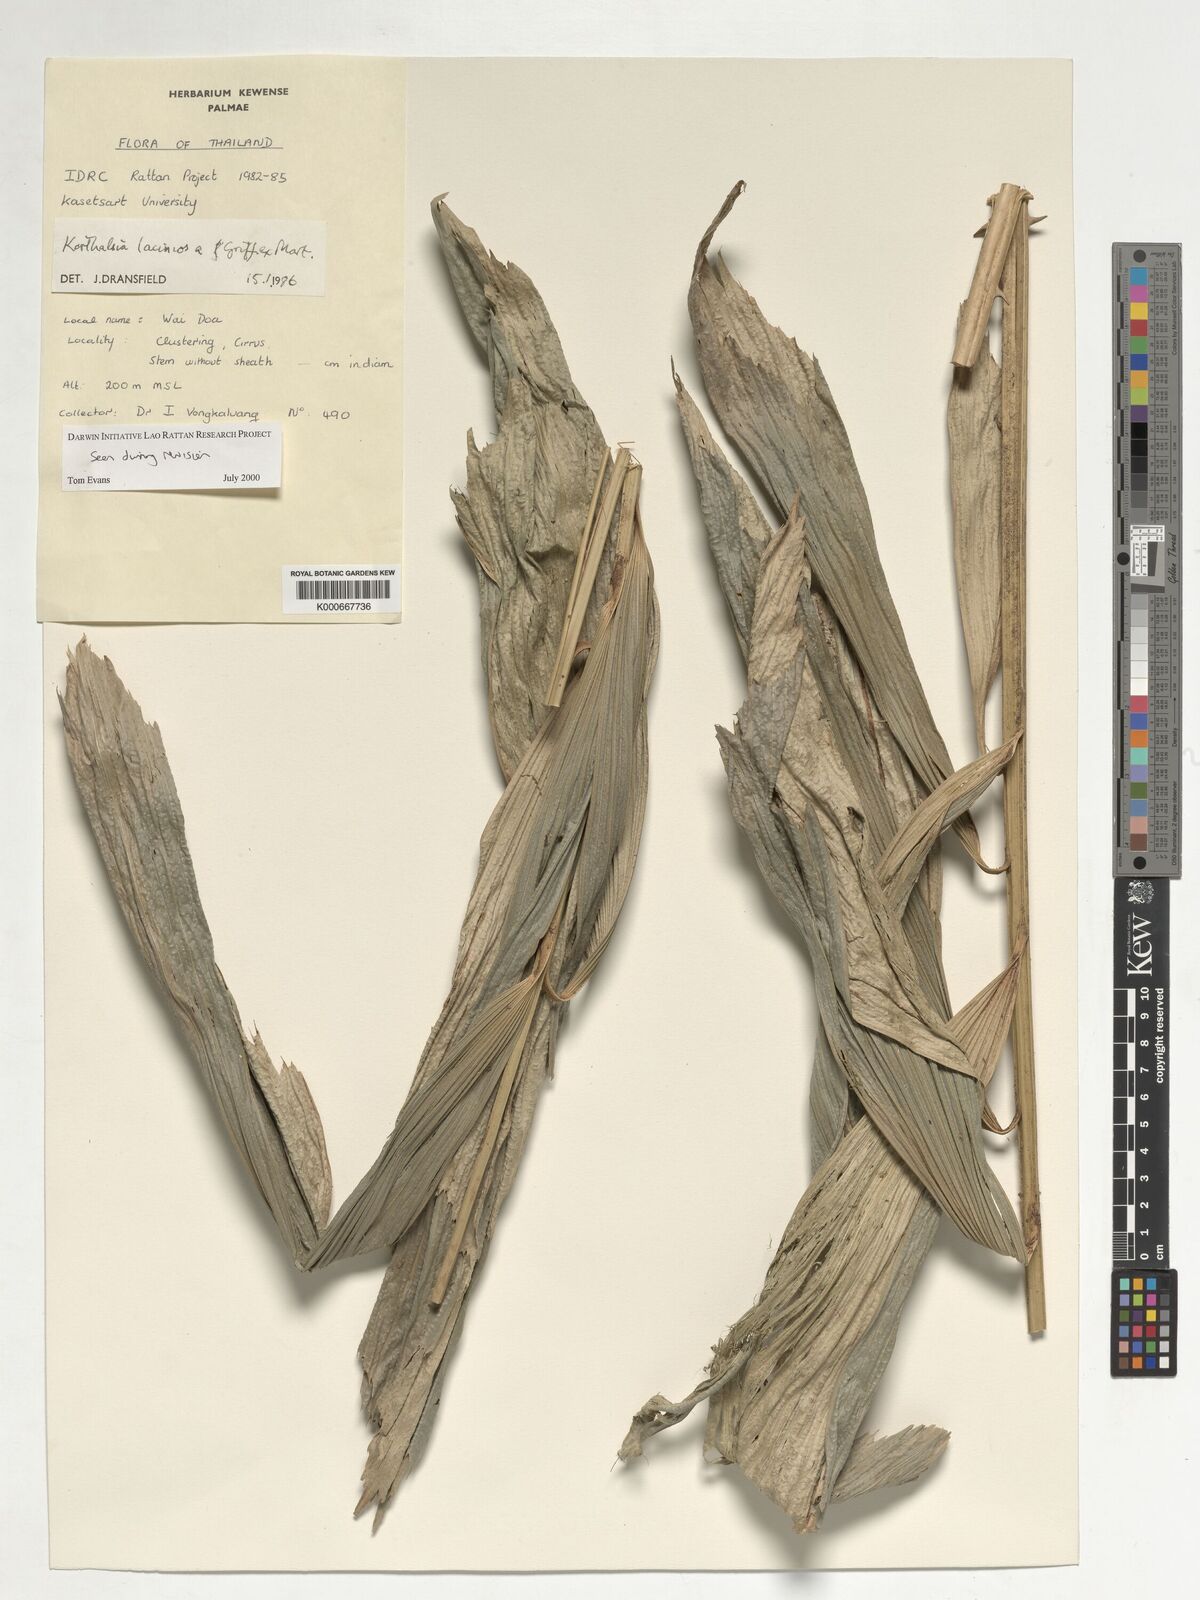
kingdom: Plantae
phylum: Tracheophyta
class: Liliopsida
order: Arecales
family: Arecaceae
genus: Korthalsia
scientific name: Korthalsia laciniosa
